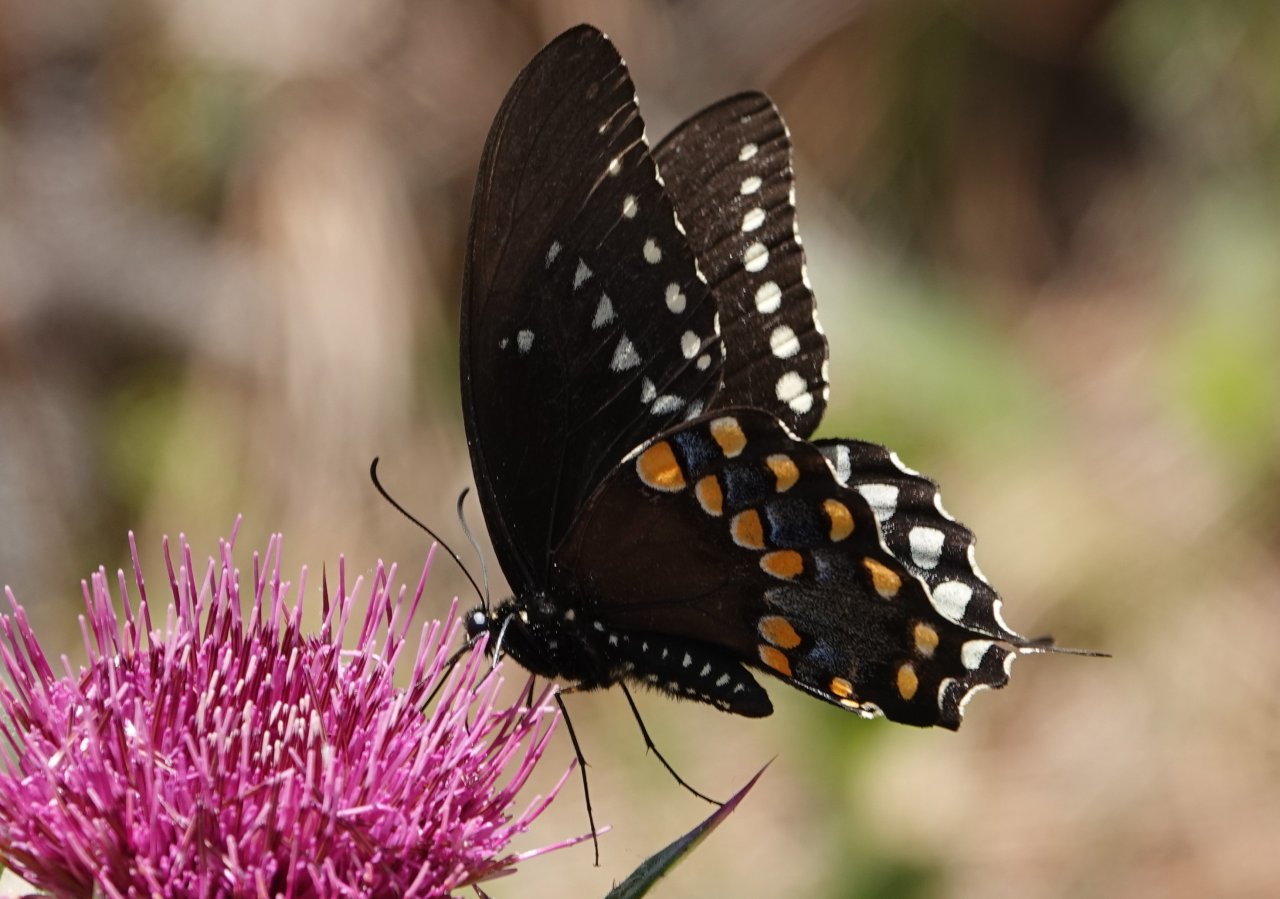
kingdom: Animalia
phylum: Arthropoda
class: Insecta
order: Lepidoptera
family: Papilionidae
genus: Pterourus
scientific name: Pterourus troilus
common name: Spicebush Swallowtail
